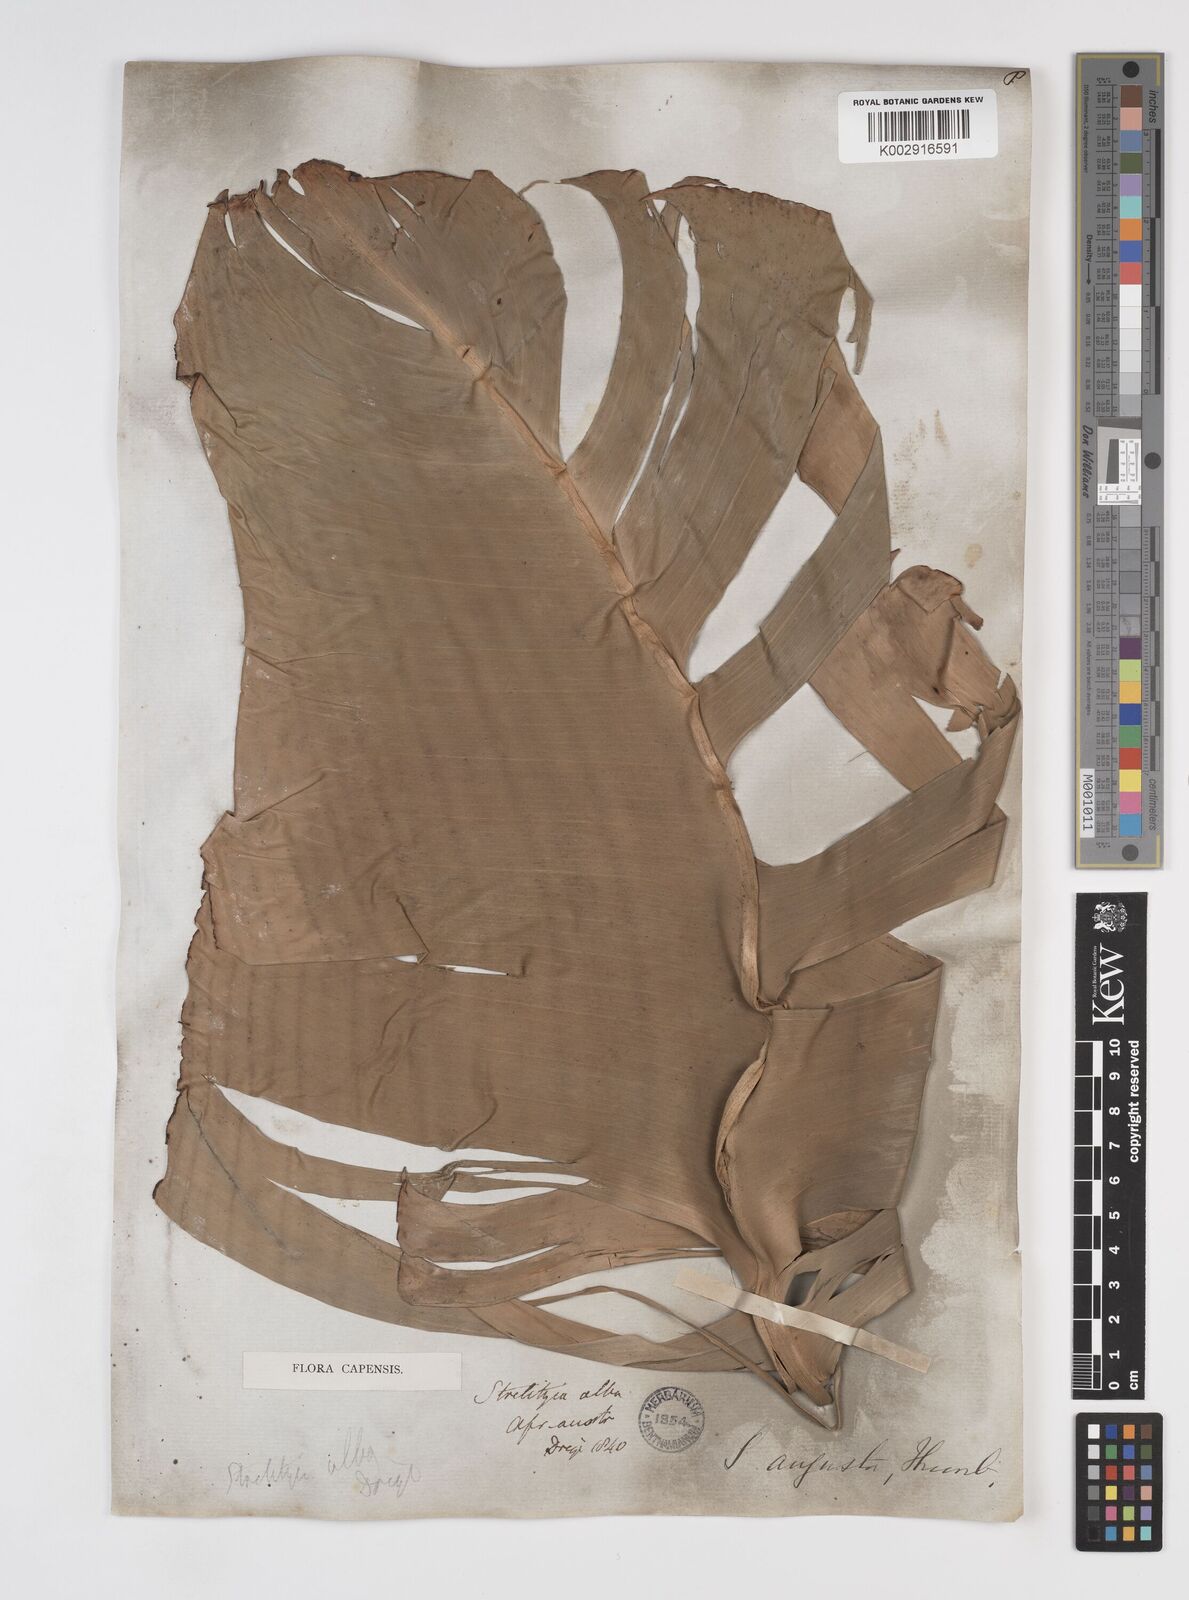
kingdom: Plantae
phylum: Tracheophyta
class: Liliopsida
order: Zingiberales
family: Strelitziaceae
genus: Strelitzia
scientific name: Strelitzia
